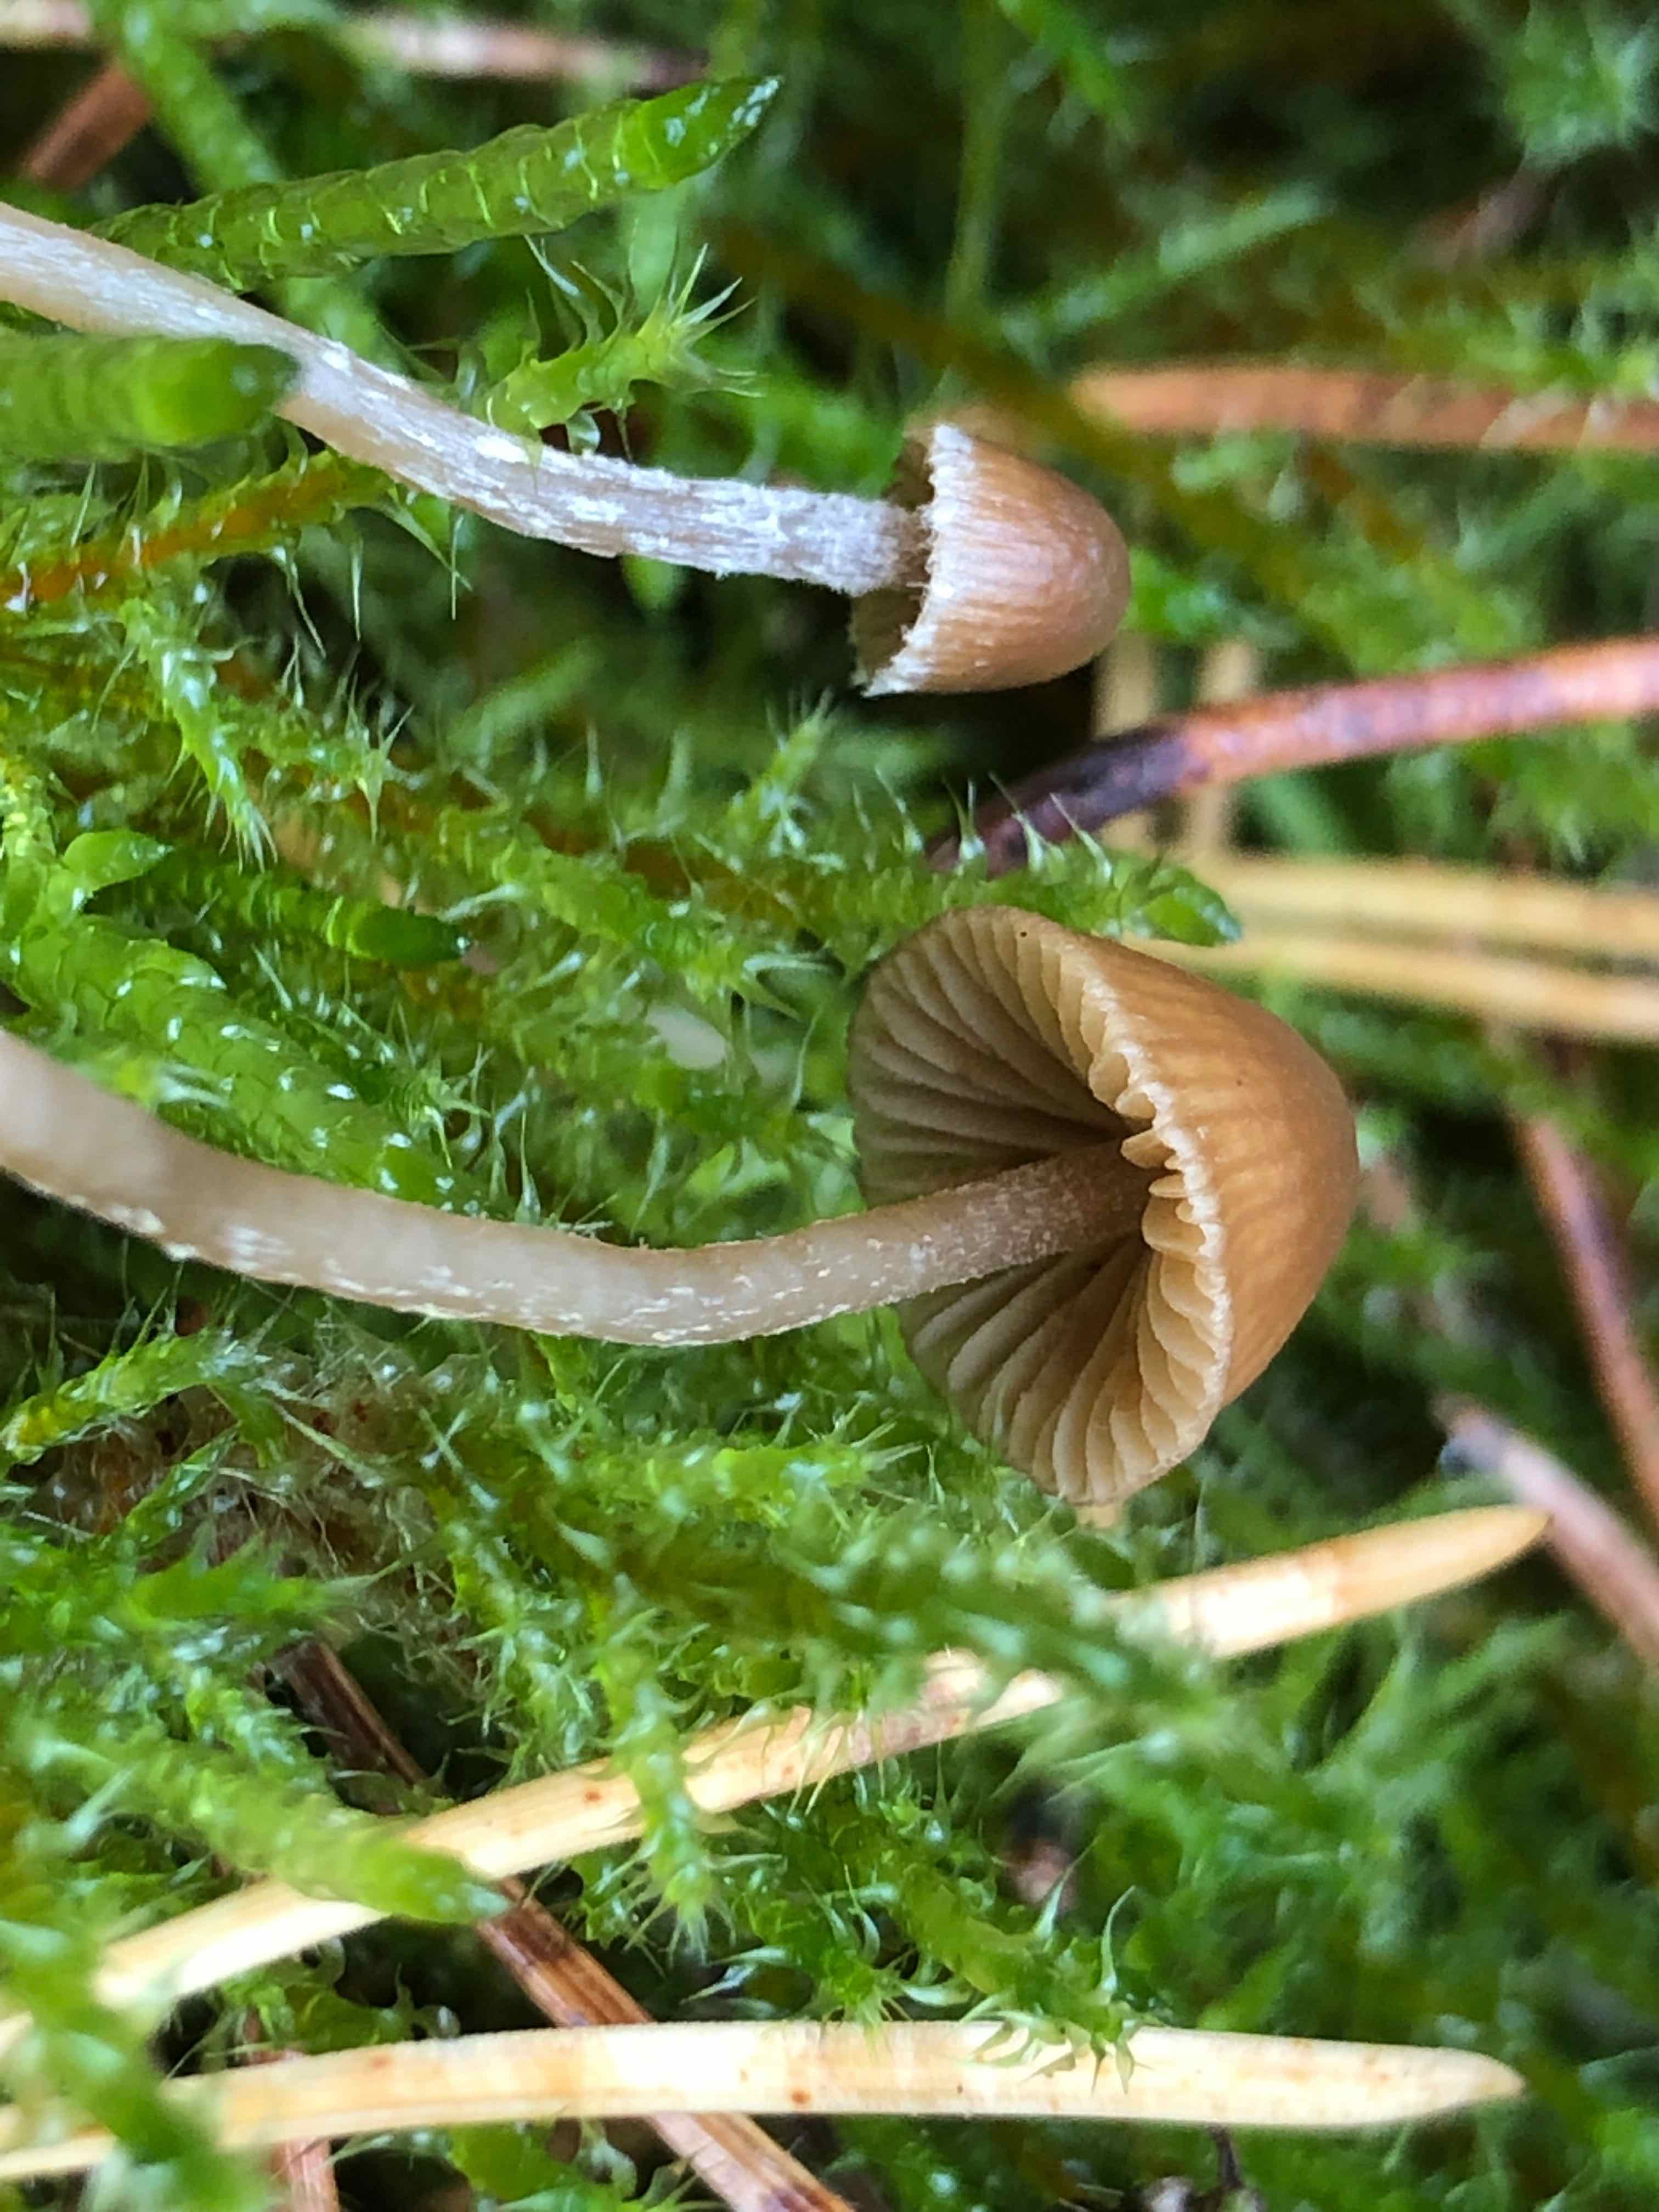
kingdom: Fungi
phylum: Basidiomycota
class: Agaricomycetes
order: Agaricales
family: Hymenogastraceae
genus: Galerina
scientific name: Galerina cephalotricha
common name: hede-hjelmhat
